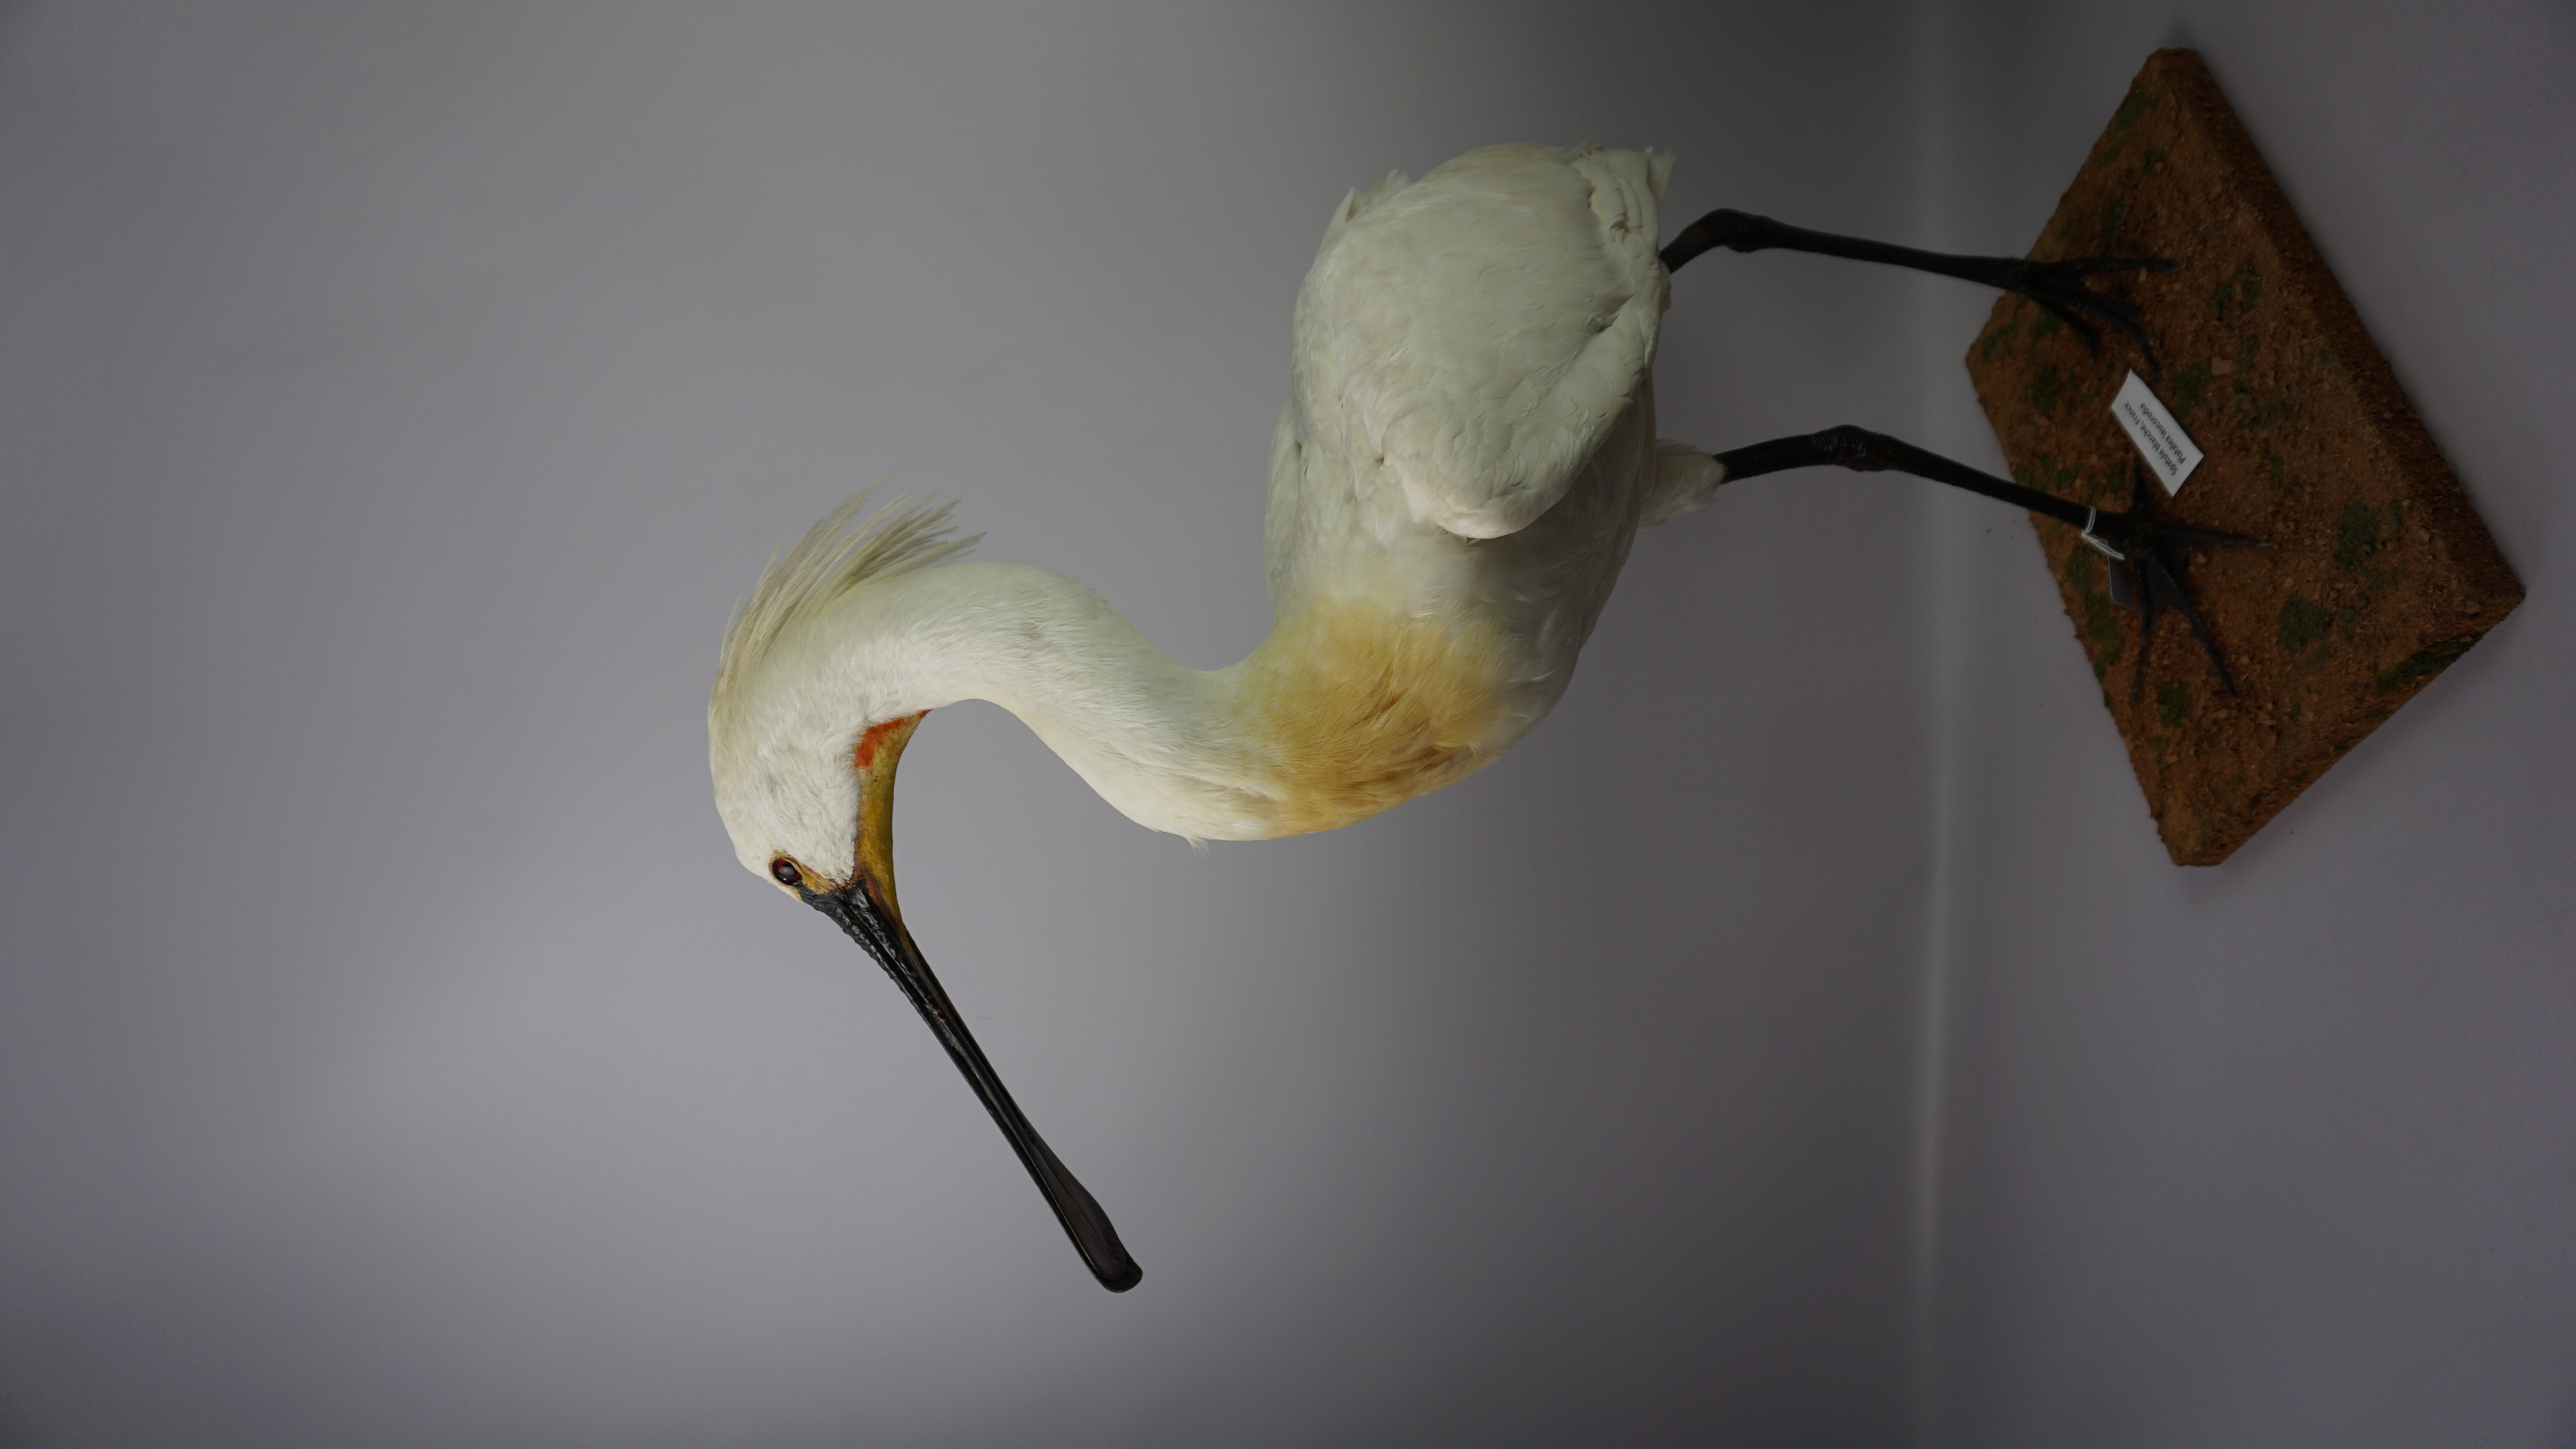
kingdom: Animalia
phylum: Chordata
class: Aves
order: Pelecaniformes
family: Threskiornithidae
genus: Platalea
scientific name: Platalea leucorodia
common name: Eurasian spoonbill
